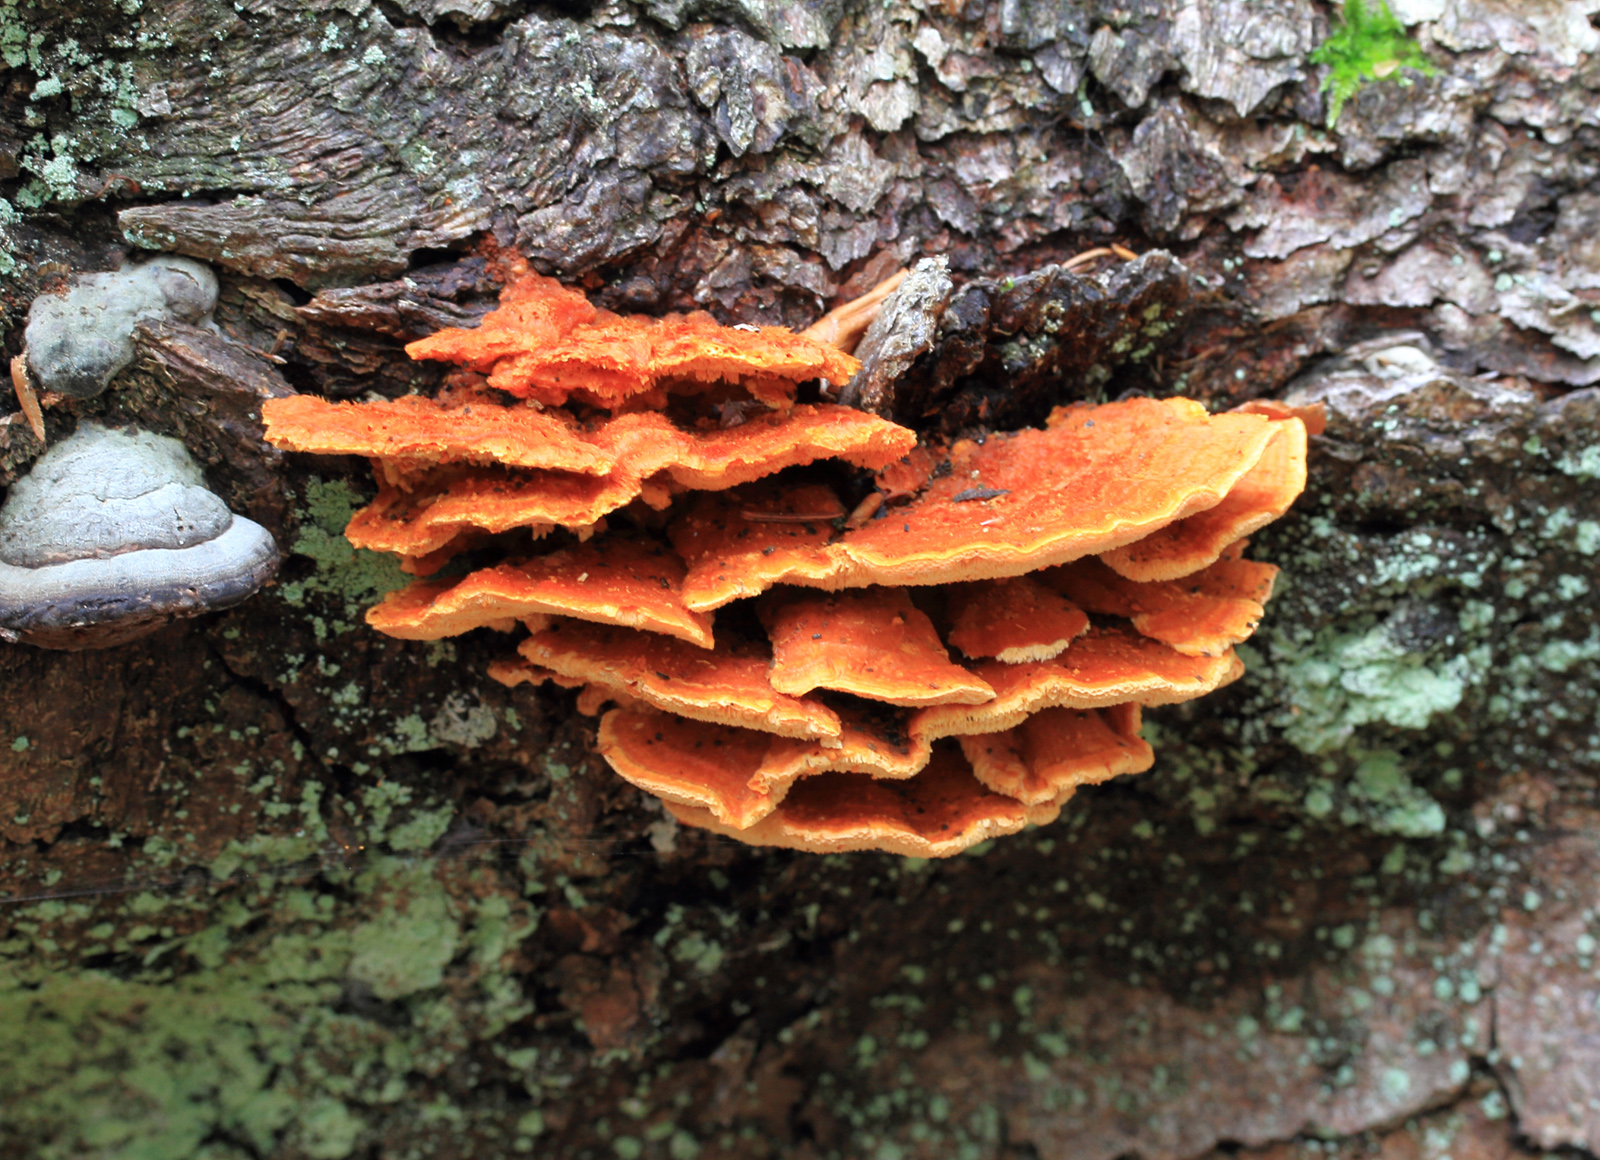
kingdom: Fungi
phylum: Basidiomycota
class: Agaricomycetes
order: Polyporales
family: Pycnoporellaceae
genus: Pycnoporellus
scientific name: Pycnoporellus fulgens
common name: flammeporesvamp
